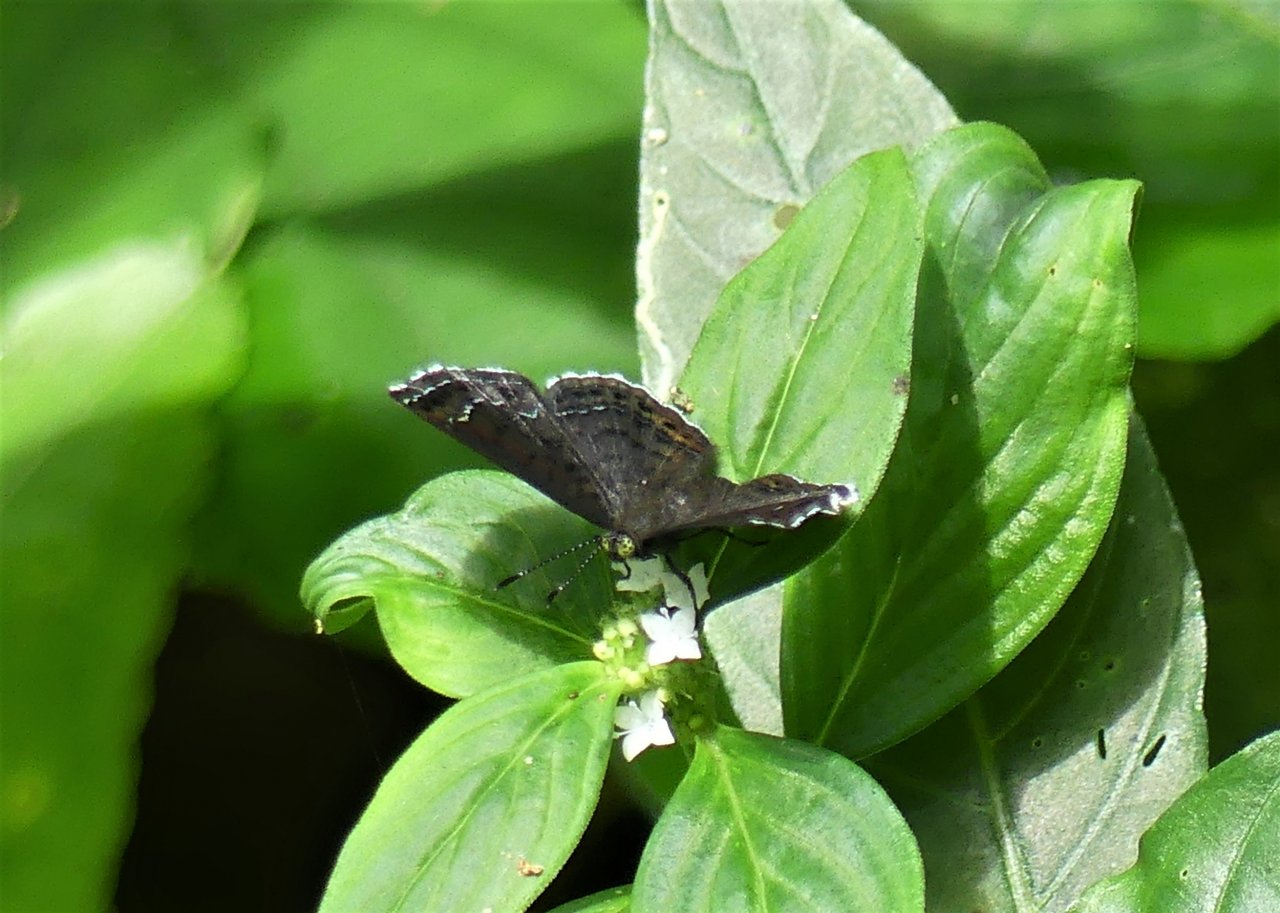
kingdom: Animalia
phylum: Arthropoda
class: Insecta
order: Lepidoptera
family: Riodinidae
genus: Detritivora
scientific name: Detritivora
